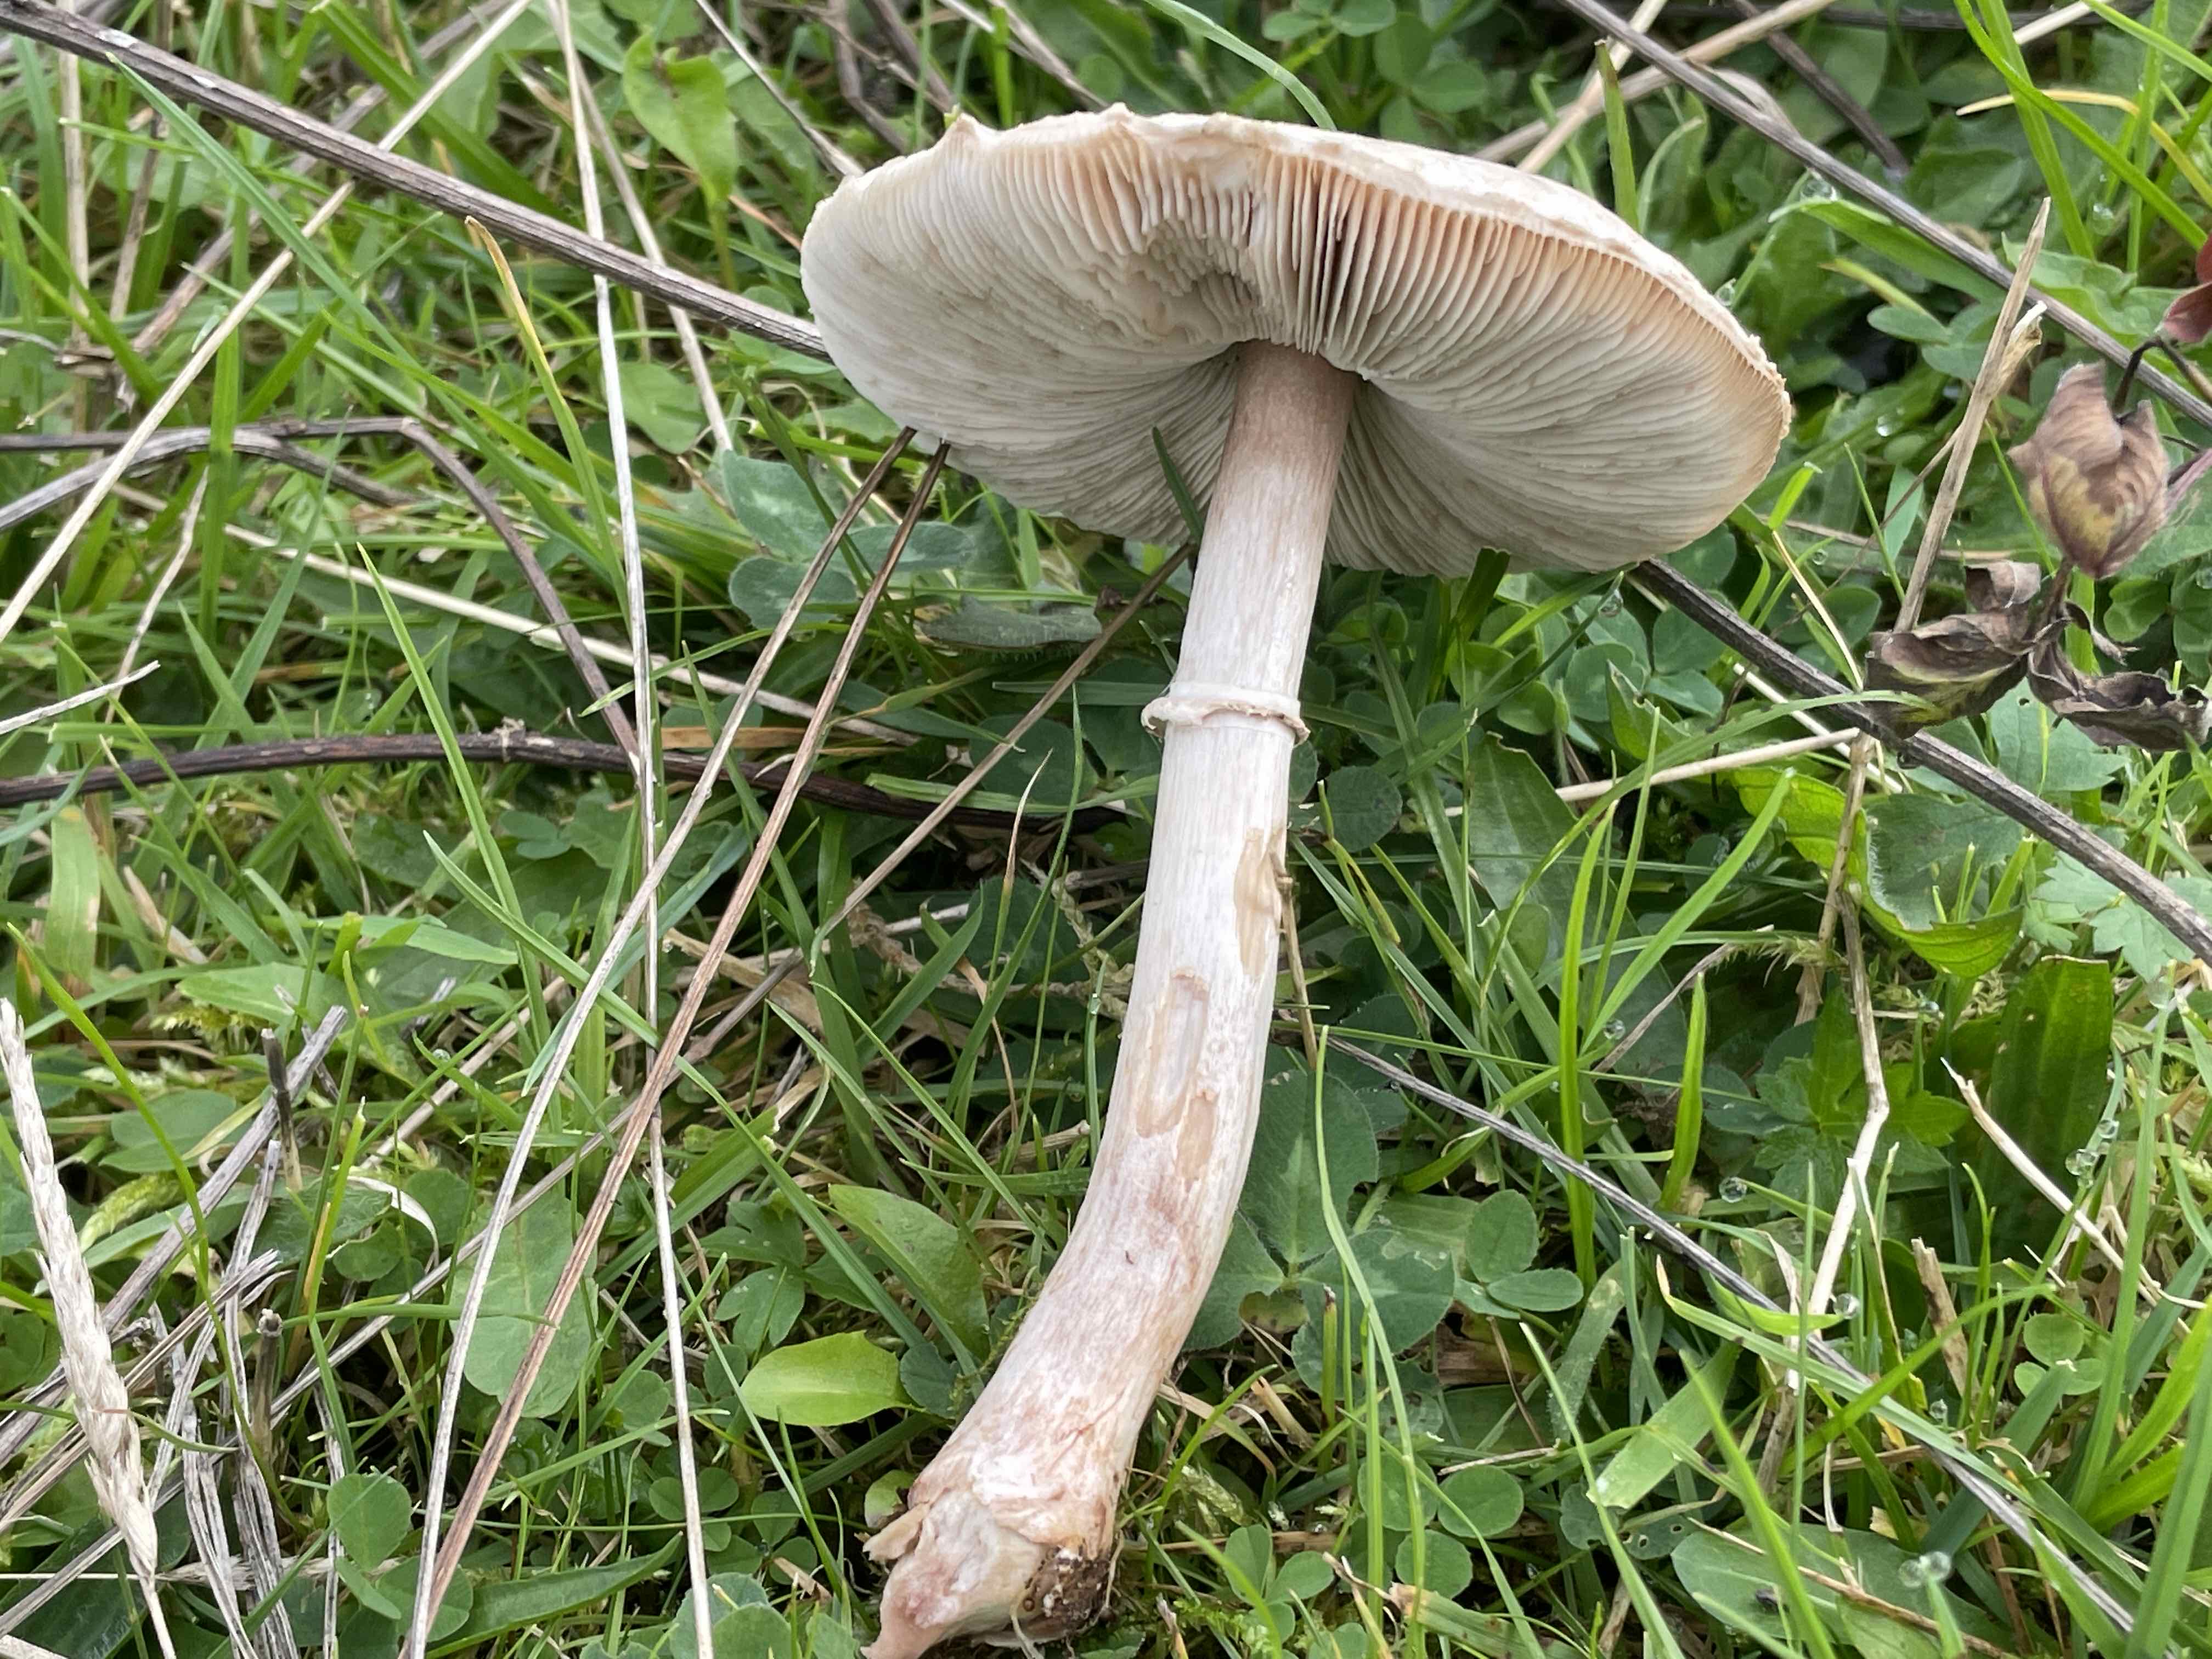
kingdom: Fungi
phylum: Basidiomycota
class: Agaricomycetes
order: Agaricales
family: Agaricaceae
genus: Macrolepiota
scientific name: Macrolepiota excoriata
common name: mark-kæmpeparasolhat
